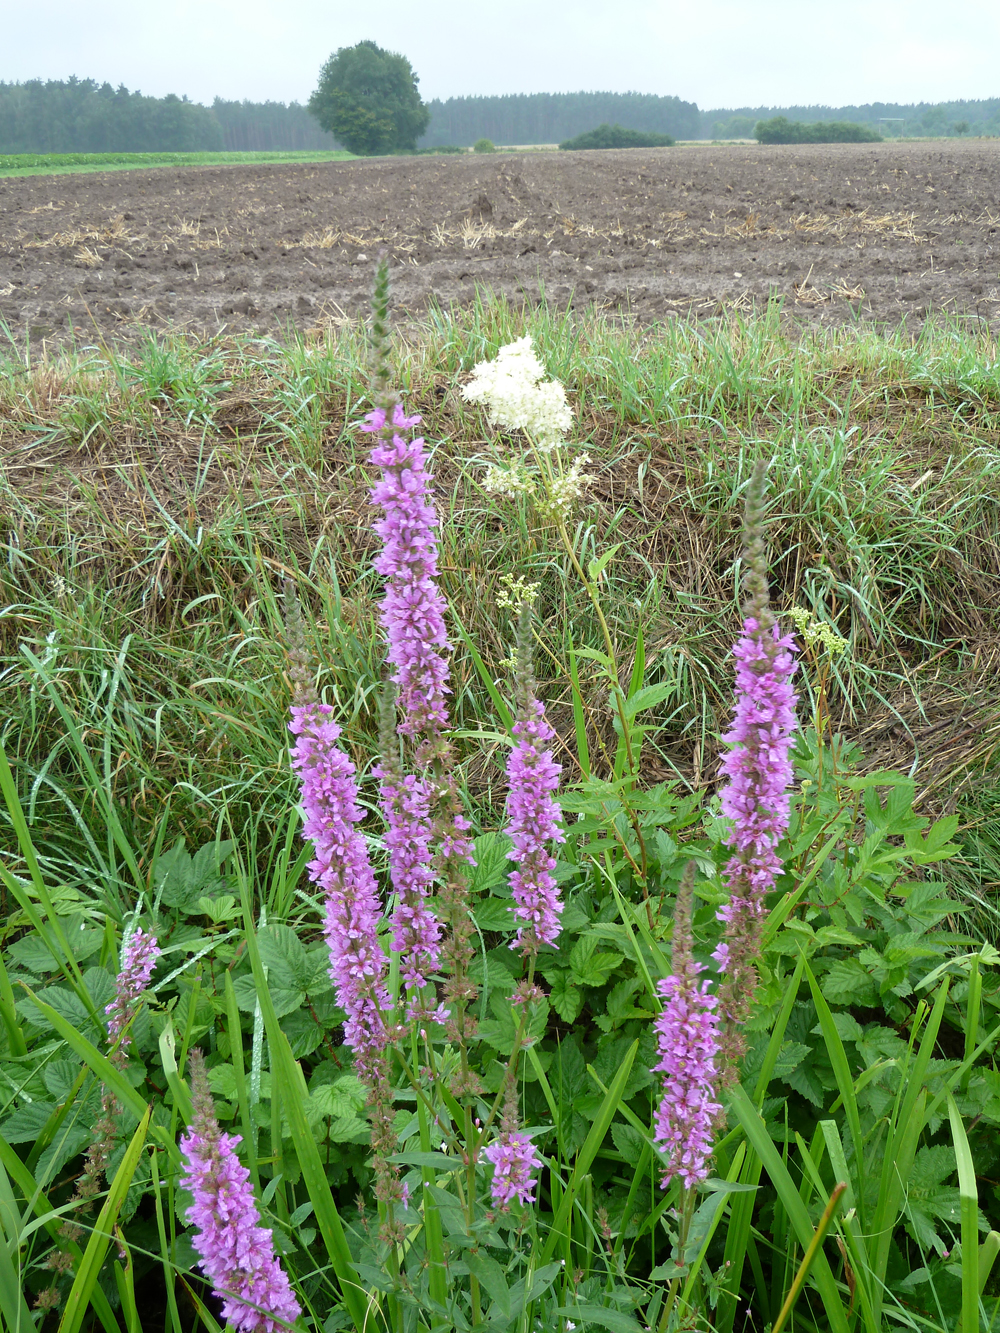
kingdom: Plantae
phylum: Tracheophyta
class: Magnoliopsida
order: Myrtales
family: Lythraceae
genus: Lythrum
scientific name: Lythrum salicaria
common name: Purple loosestrife
